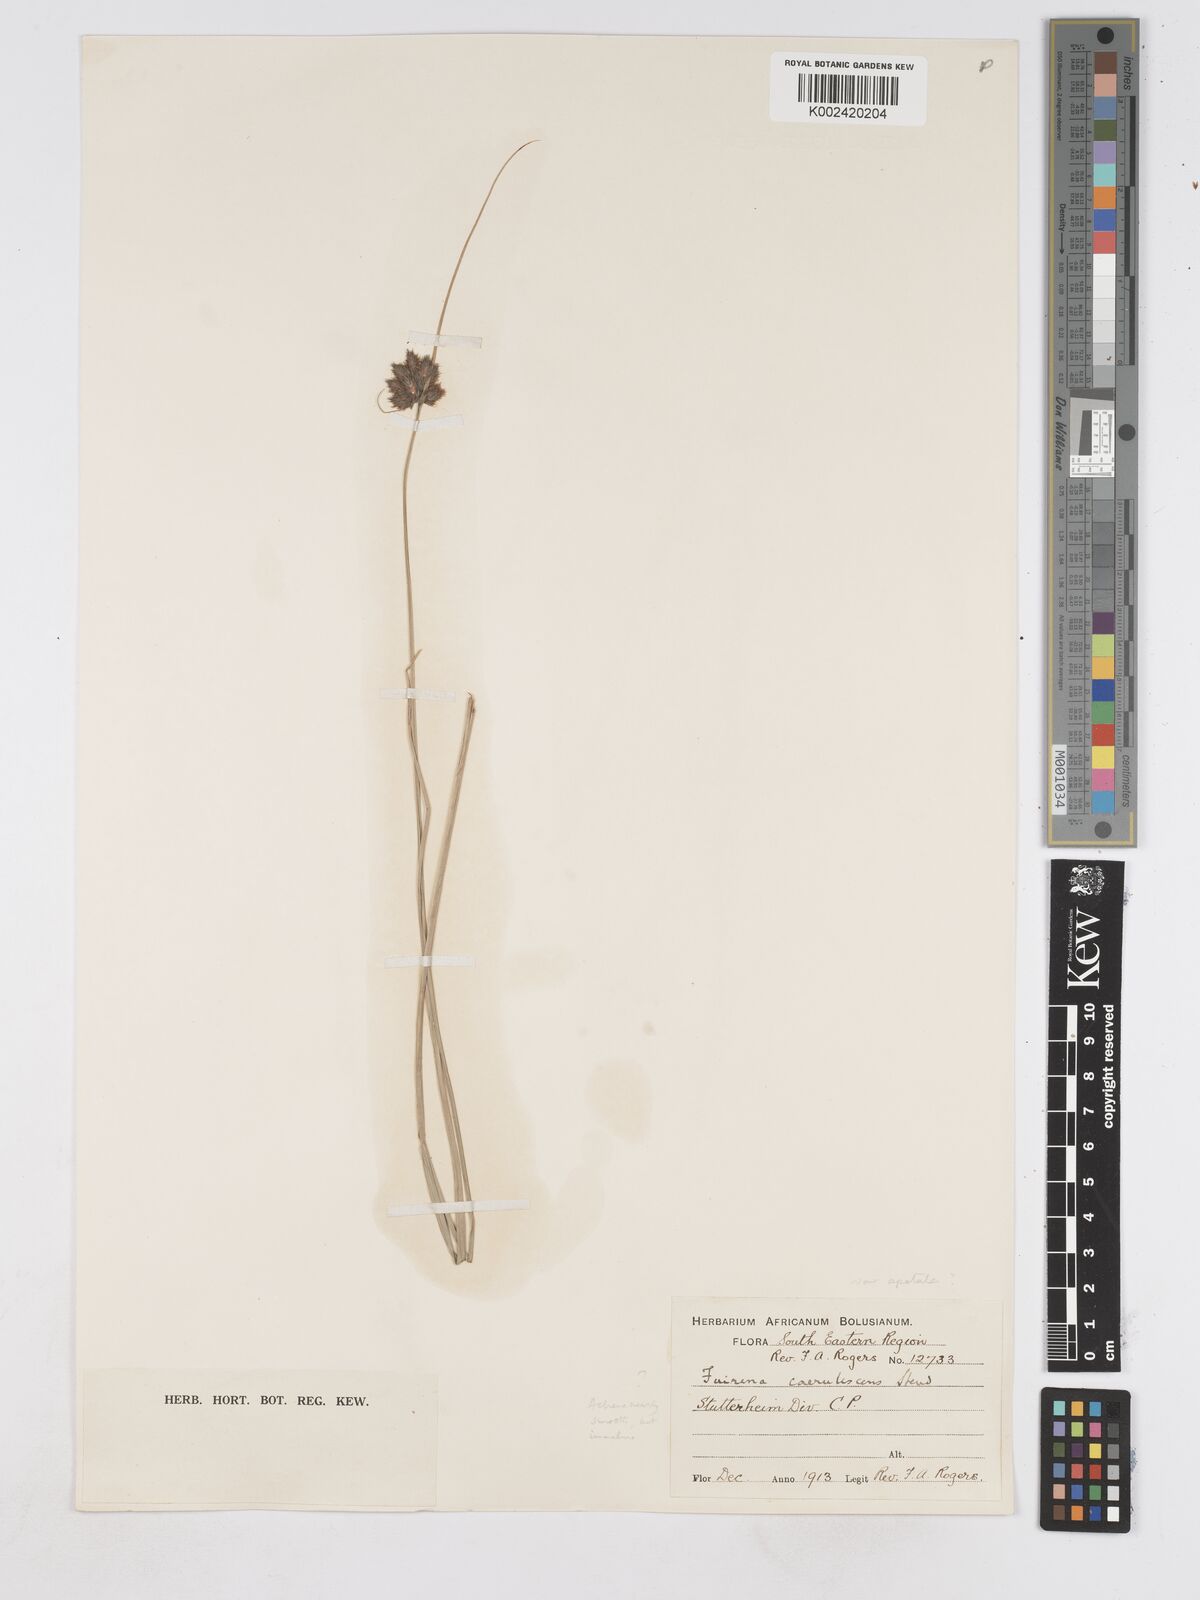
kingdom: Plantae
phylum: Tracheophyta
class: Liliopsida
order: Poales
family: Cyperaceae
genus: Fuirena
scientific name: Fuirena coerulescens
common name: Blue umbrella-sedge
